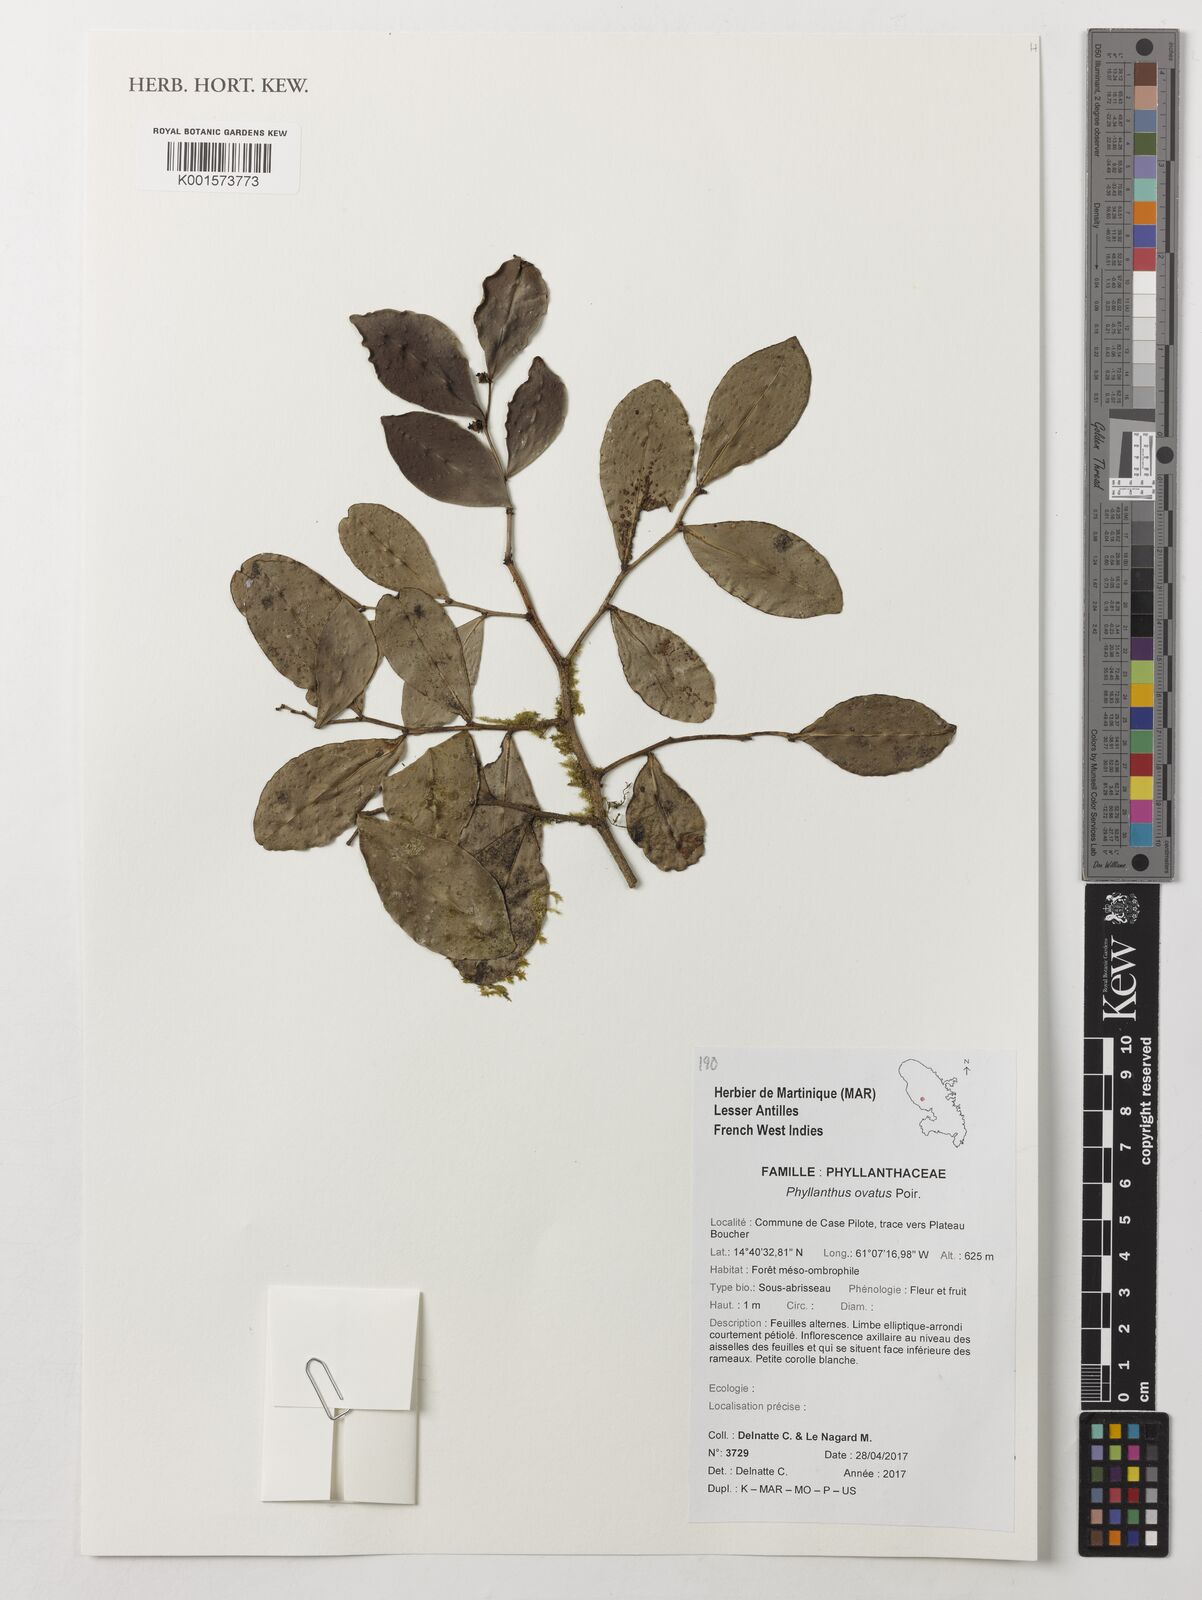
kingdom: Plantae
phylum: Tracheophyta
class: Magnoliopsida
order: Malpighiales
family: Phyllanthaceae
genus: Phyllanthus
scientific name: Phyllanthus ovatus
